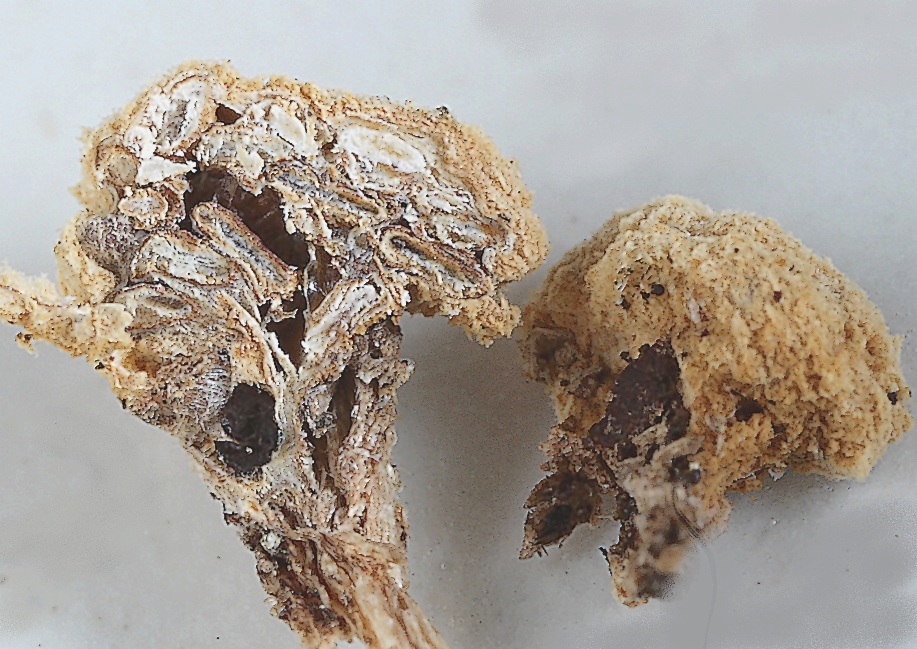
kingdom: Fungi
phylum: Basidiomycota
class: Agaricomycetes
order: Agaricales
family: Agaricaceae
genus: Nidularia
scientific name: Nidularia deformis
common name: pudesvamp
